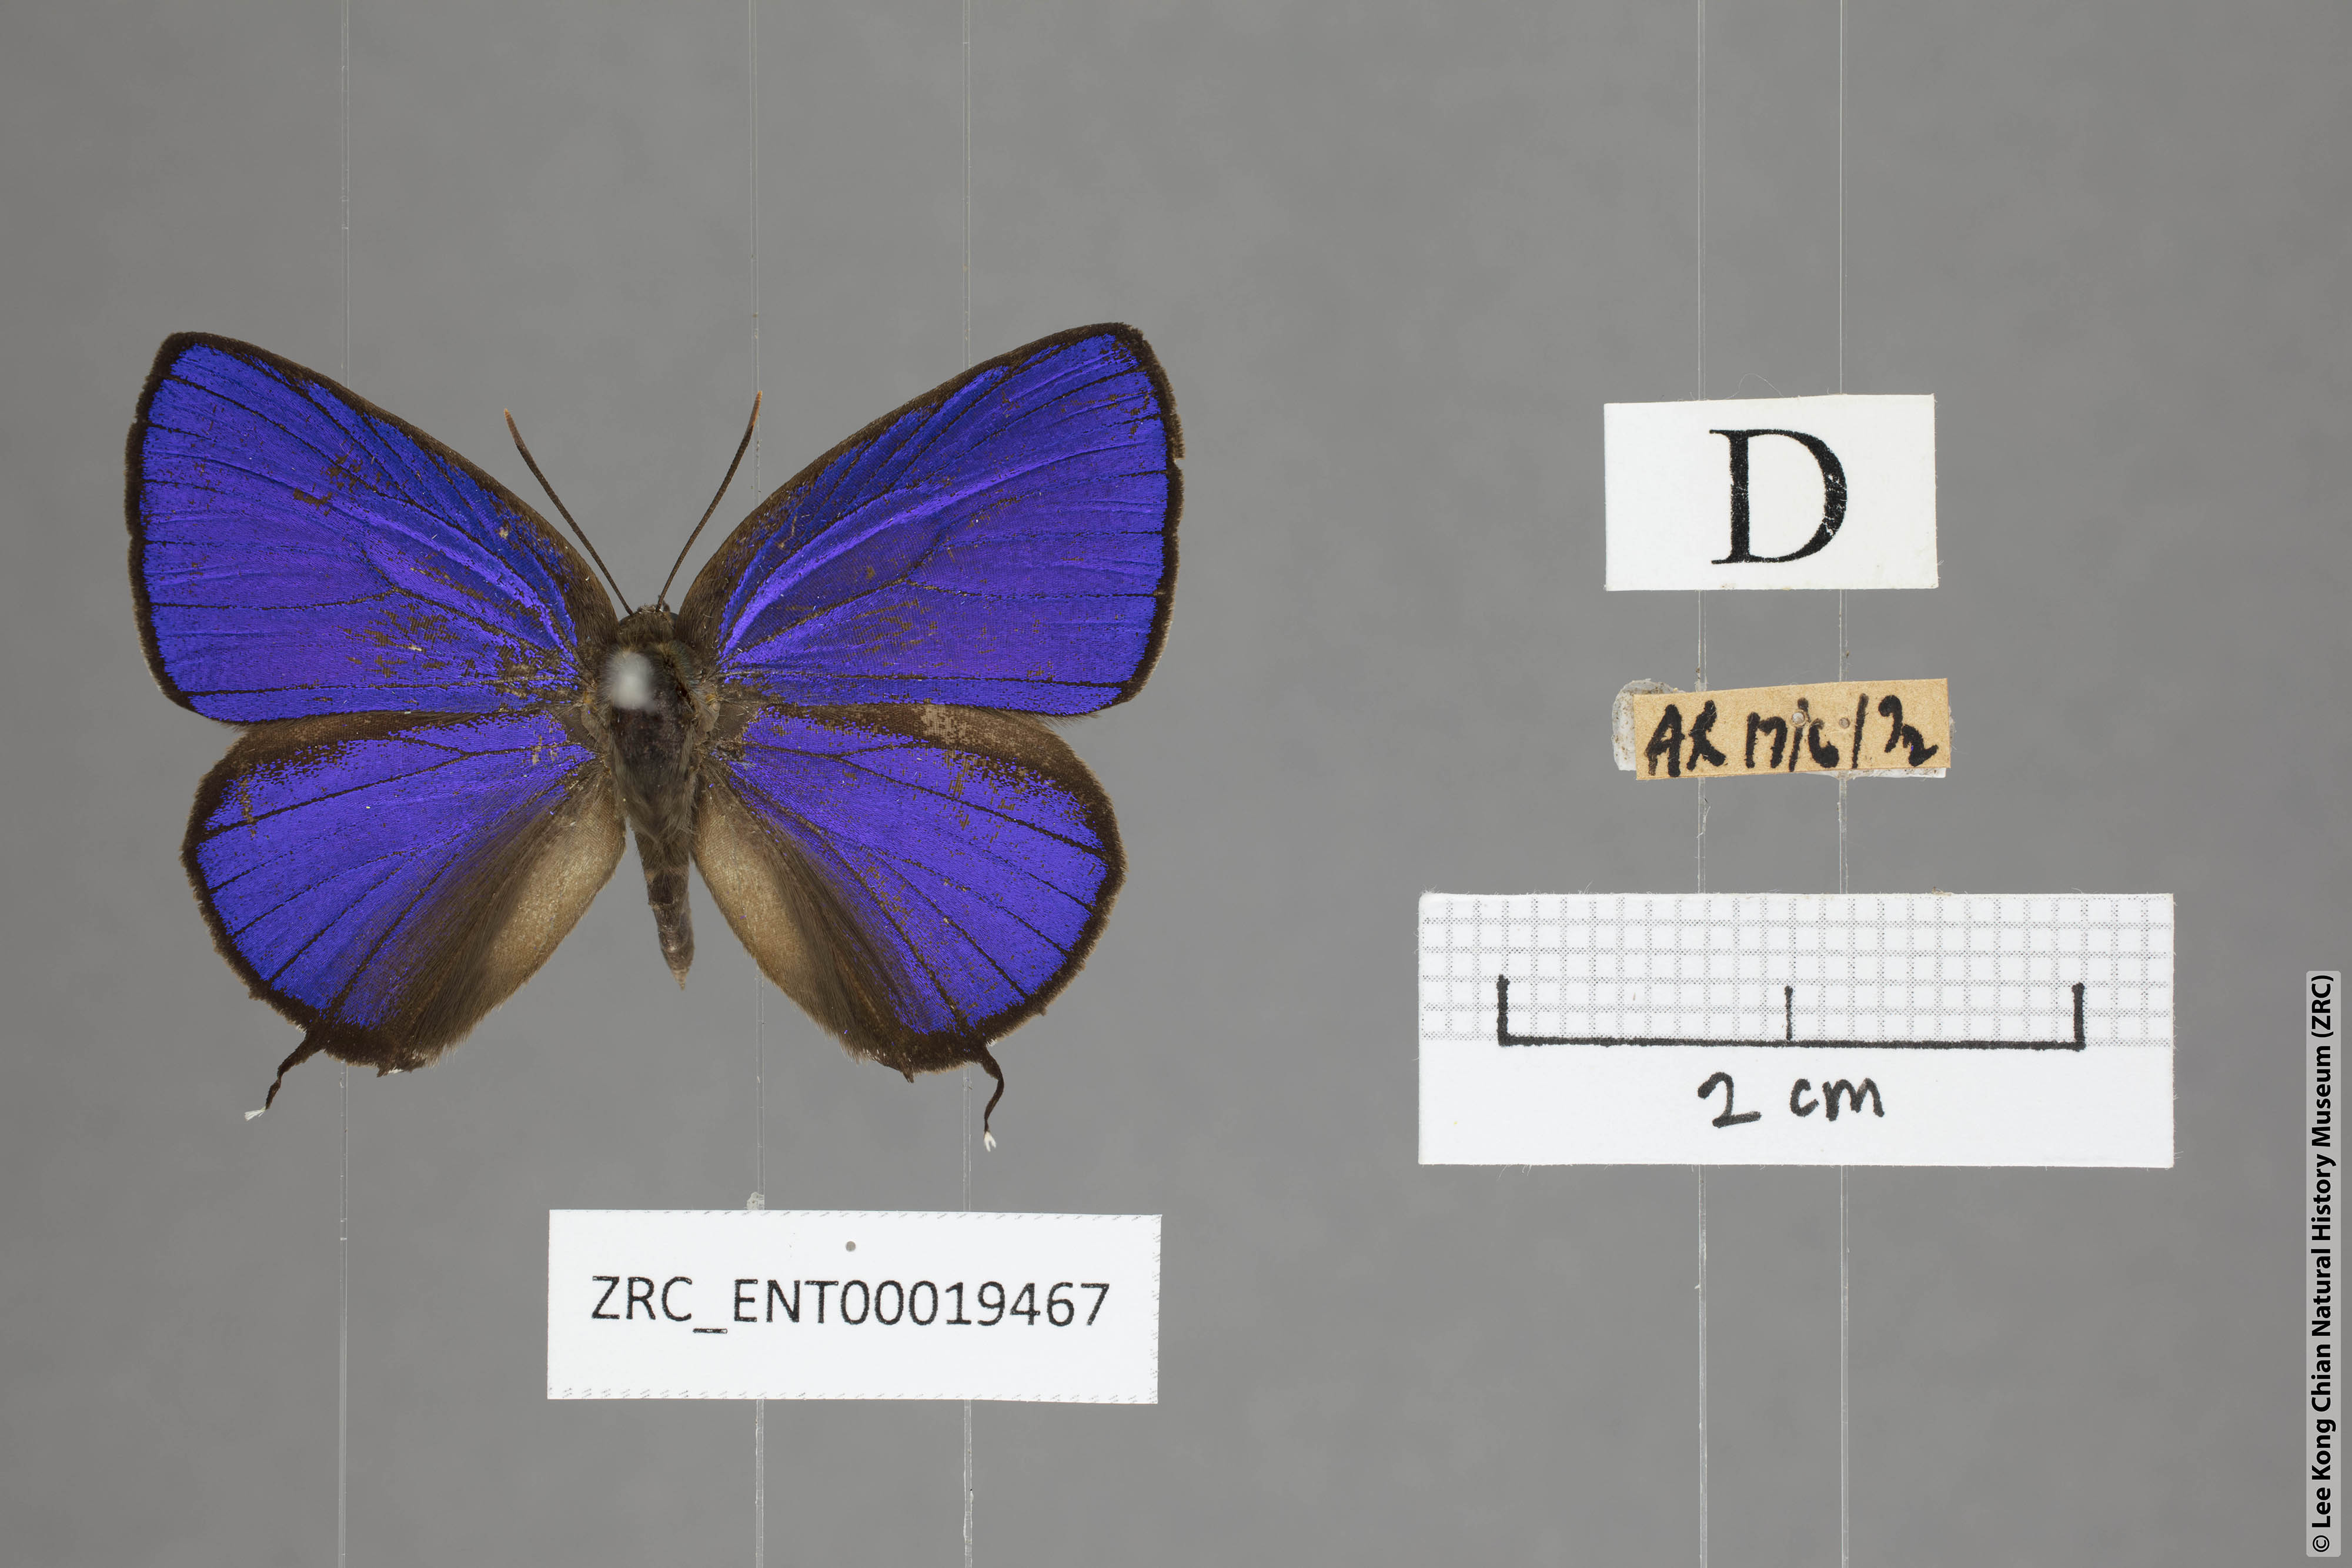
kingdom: Animalia
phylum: Arthropoda
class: Insecta
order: Lepidoptera
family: Lycaenidae
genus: Arhopala
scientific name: Arhopala azinis
